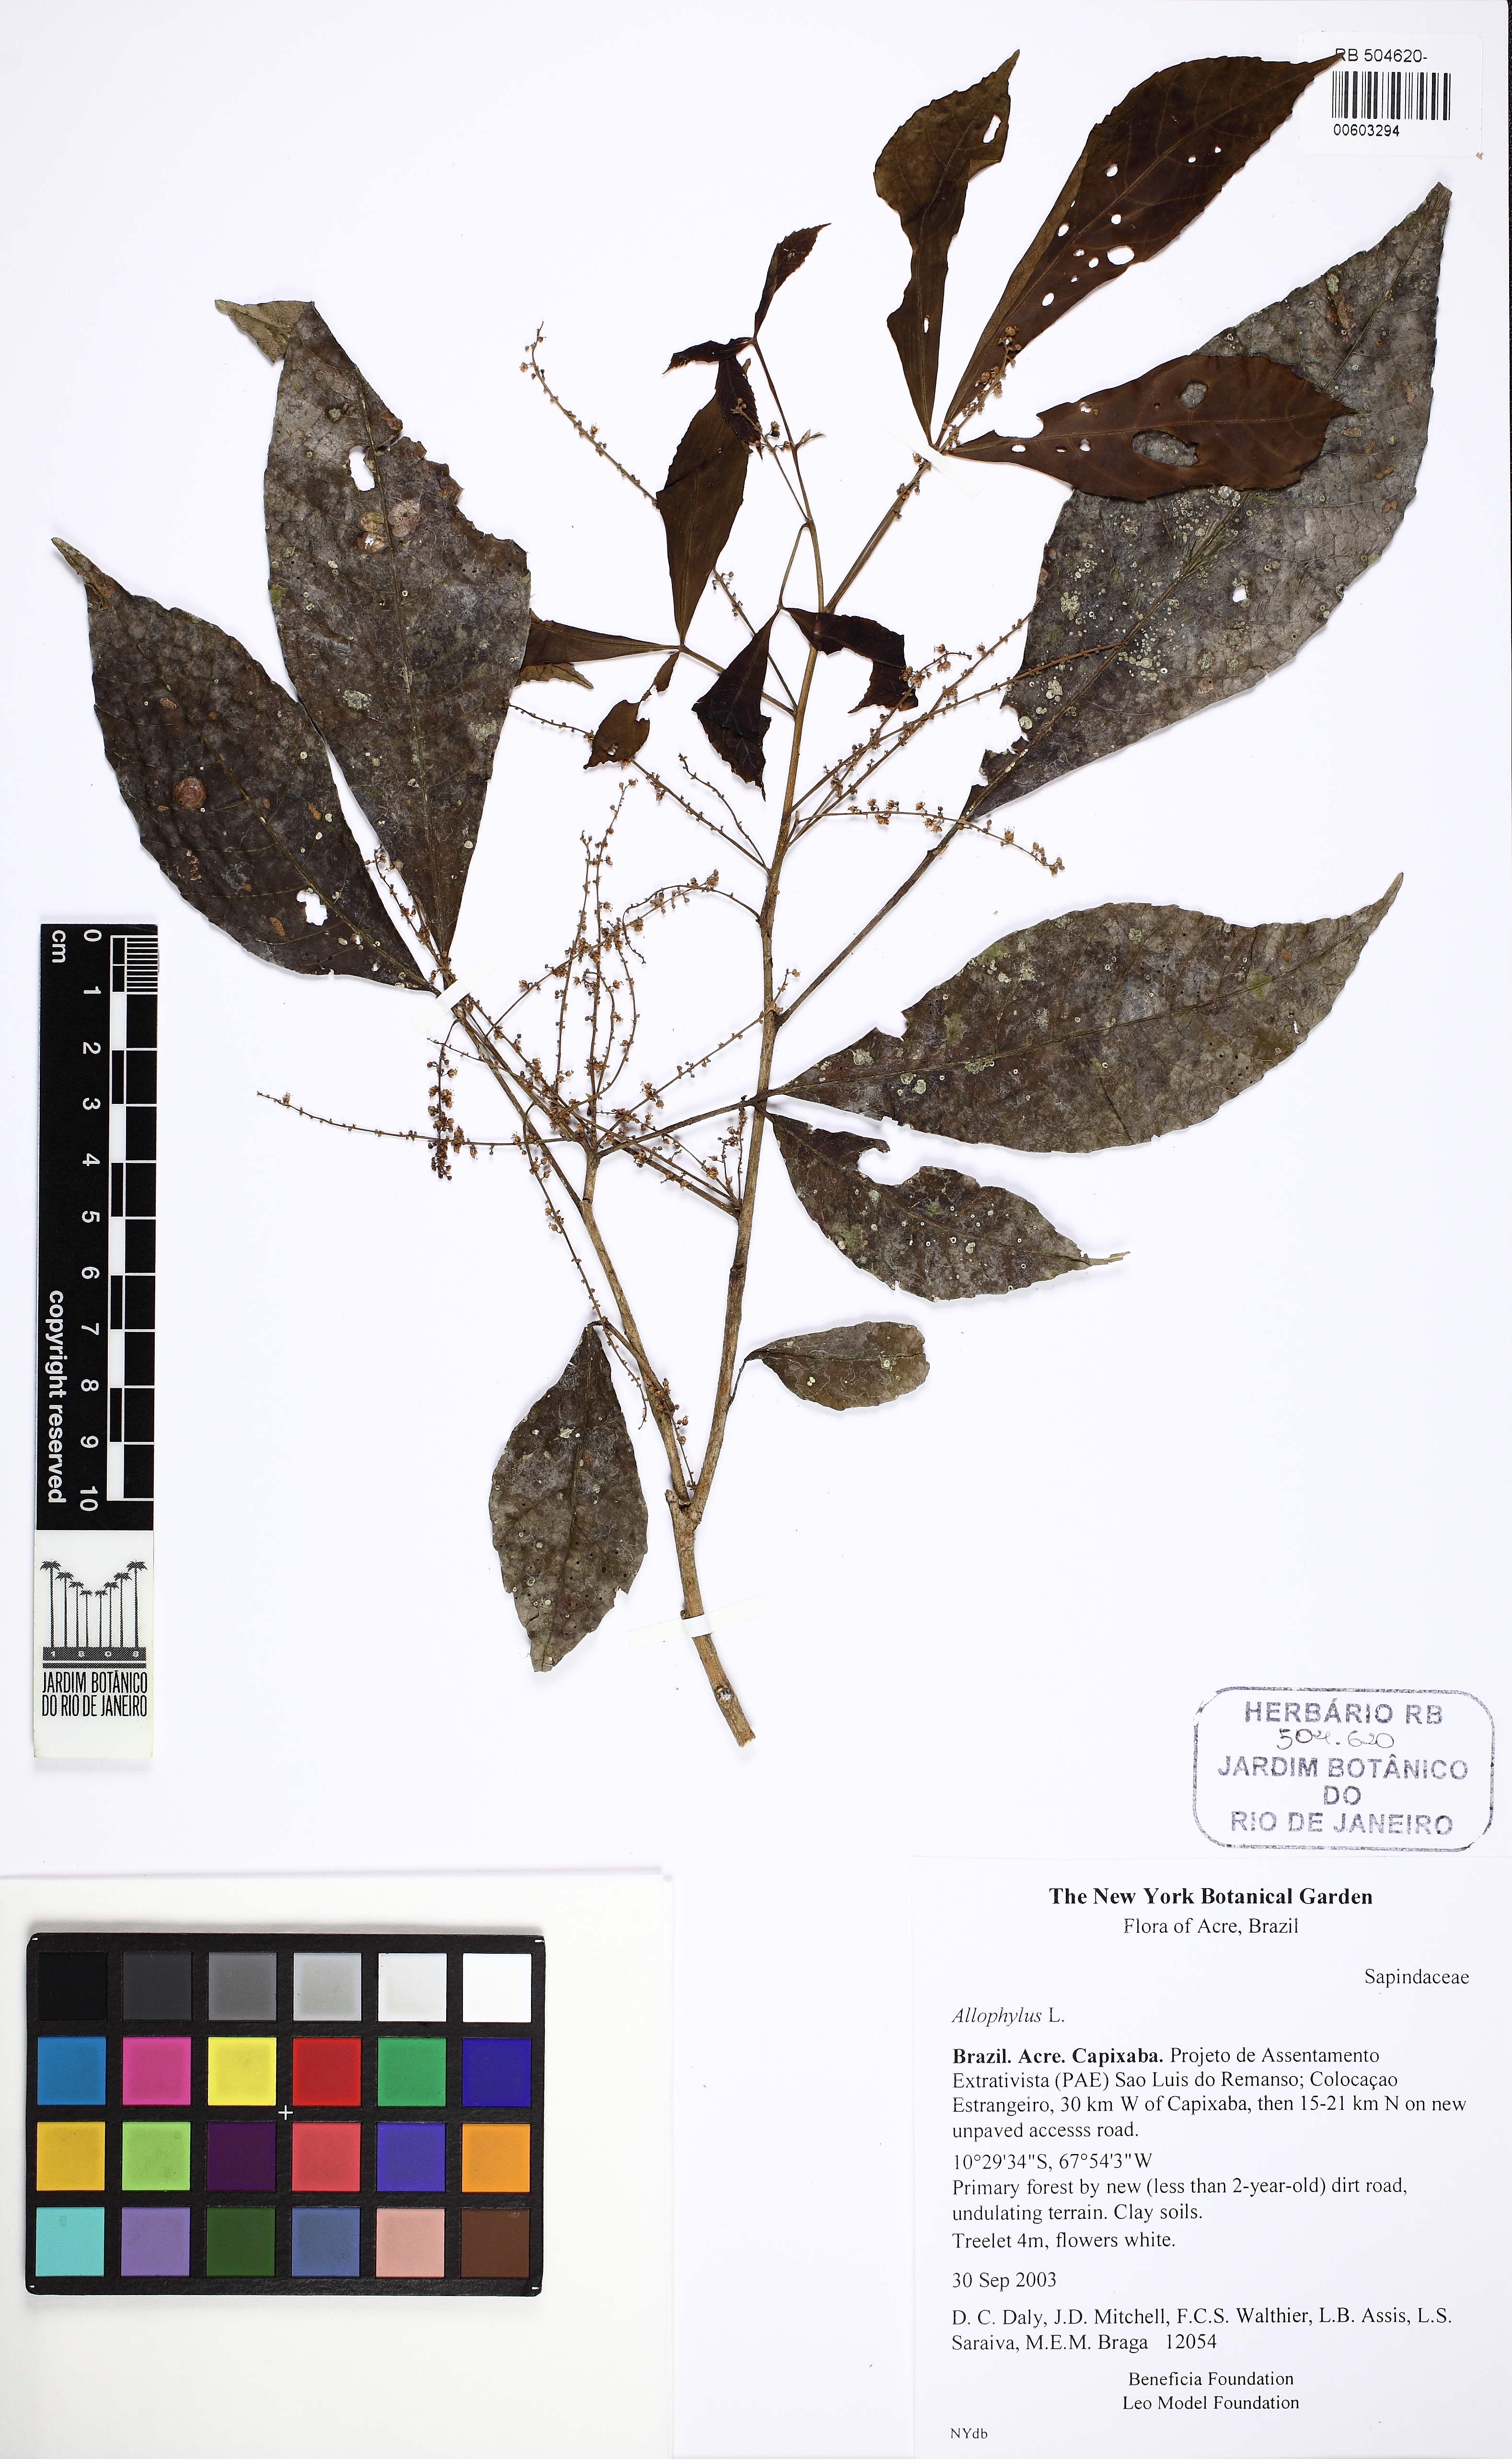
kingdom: Plantae
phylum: Tracheophyta
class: Magnoliopsida
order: Sapindales
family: Sapindaceae
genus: Allophylus
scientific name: Allophylus glabratus
